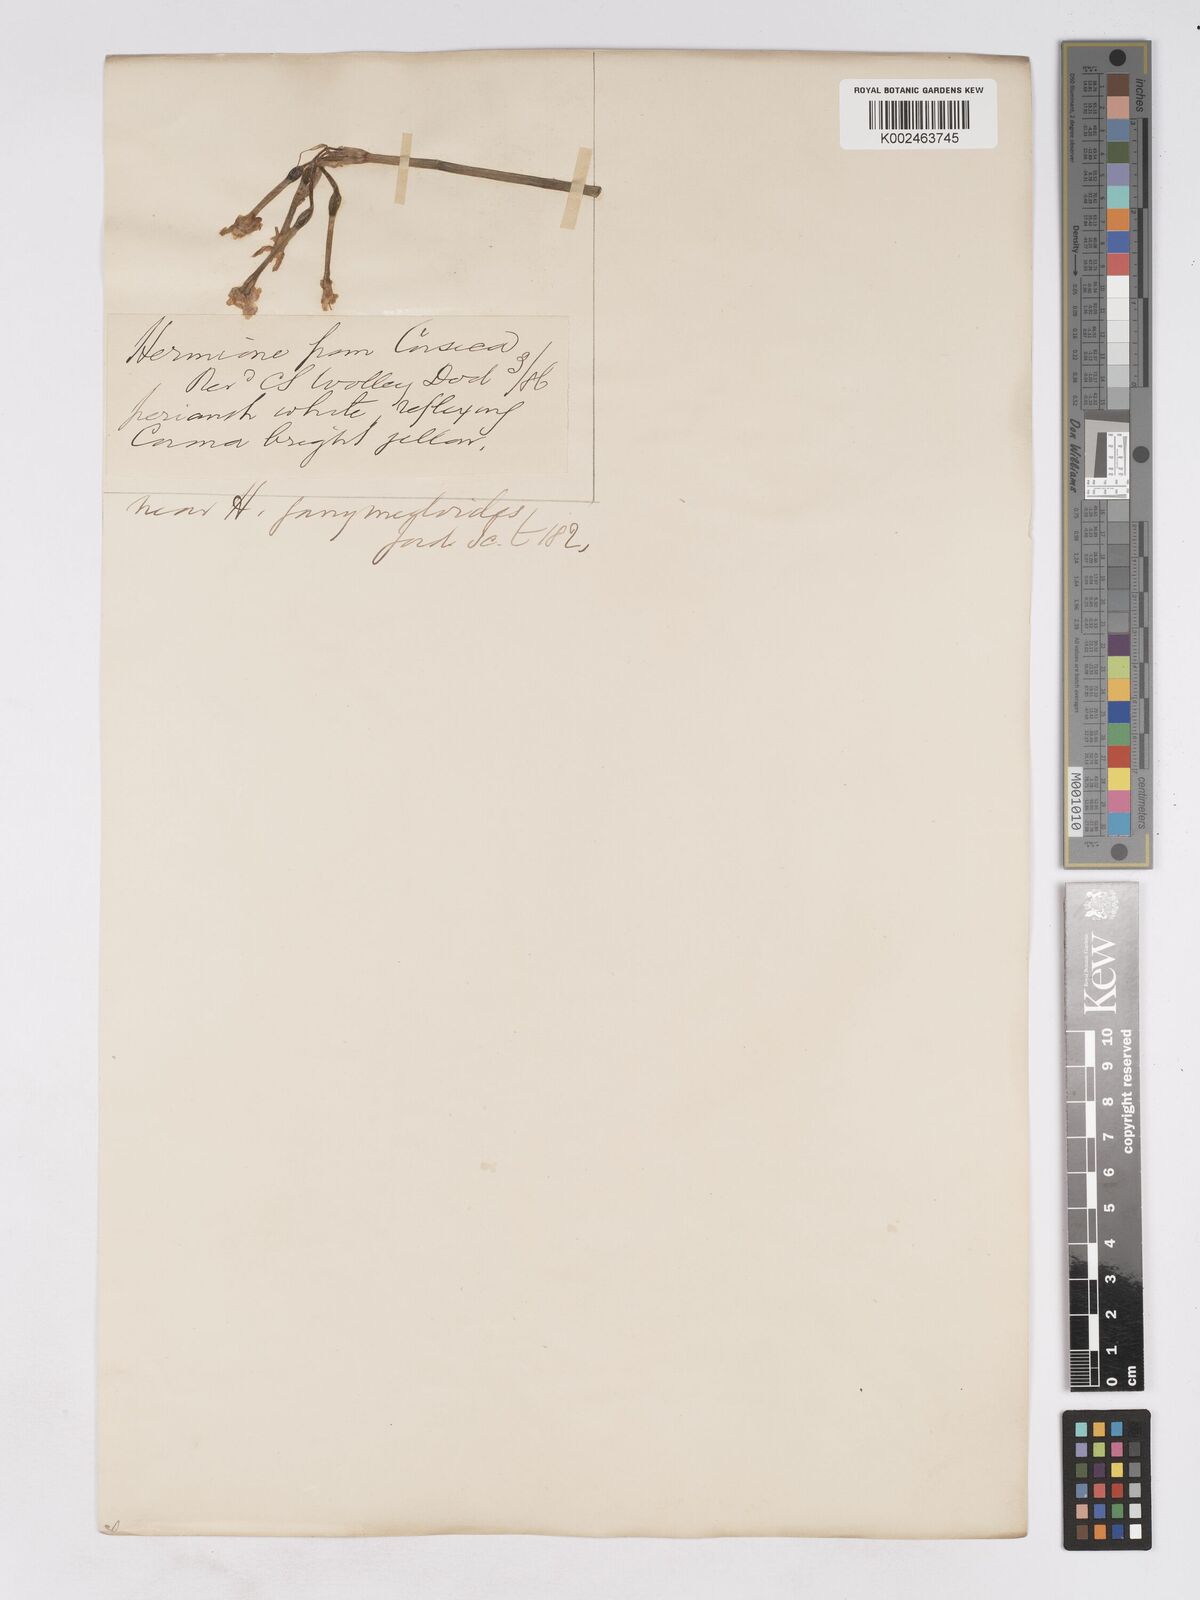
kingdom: Plantae
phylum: Tracheophyta
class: Liliopsida
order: Asparagales
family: Amaryllidaceae
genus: Narcissus
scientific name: Narcissus
